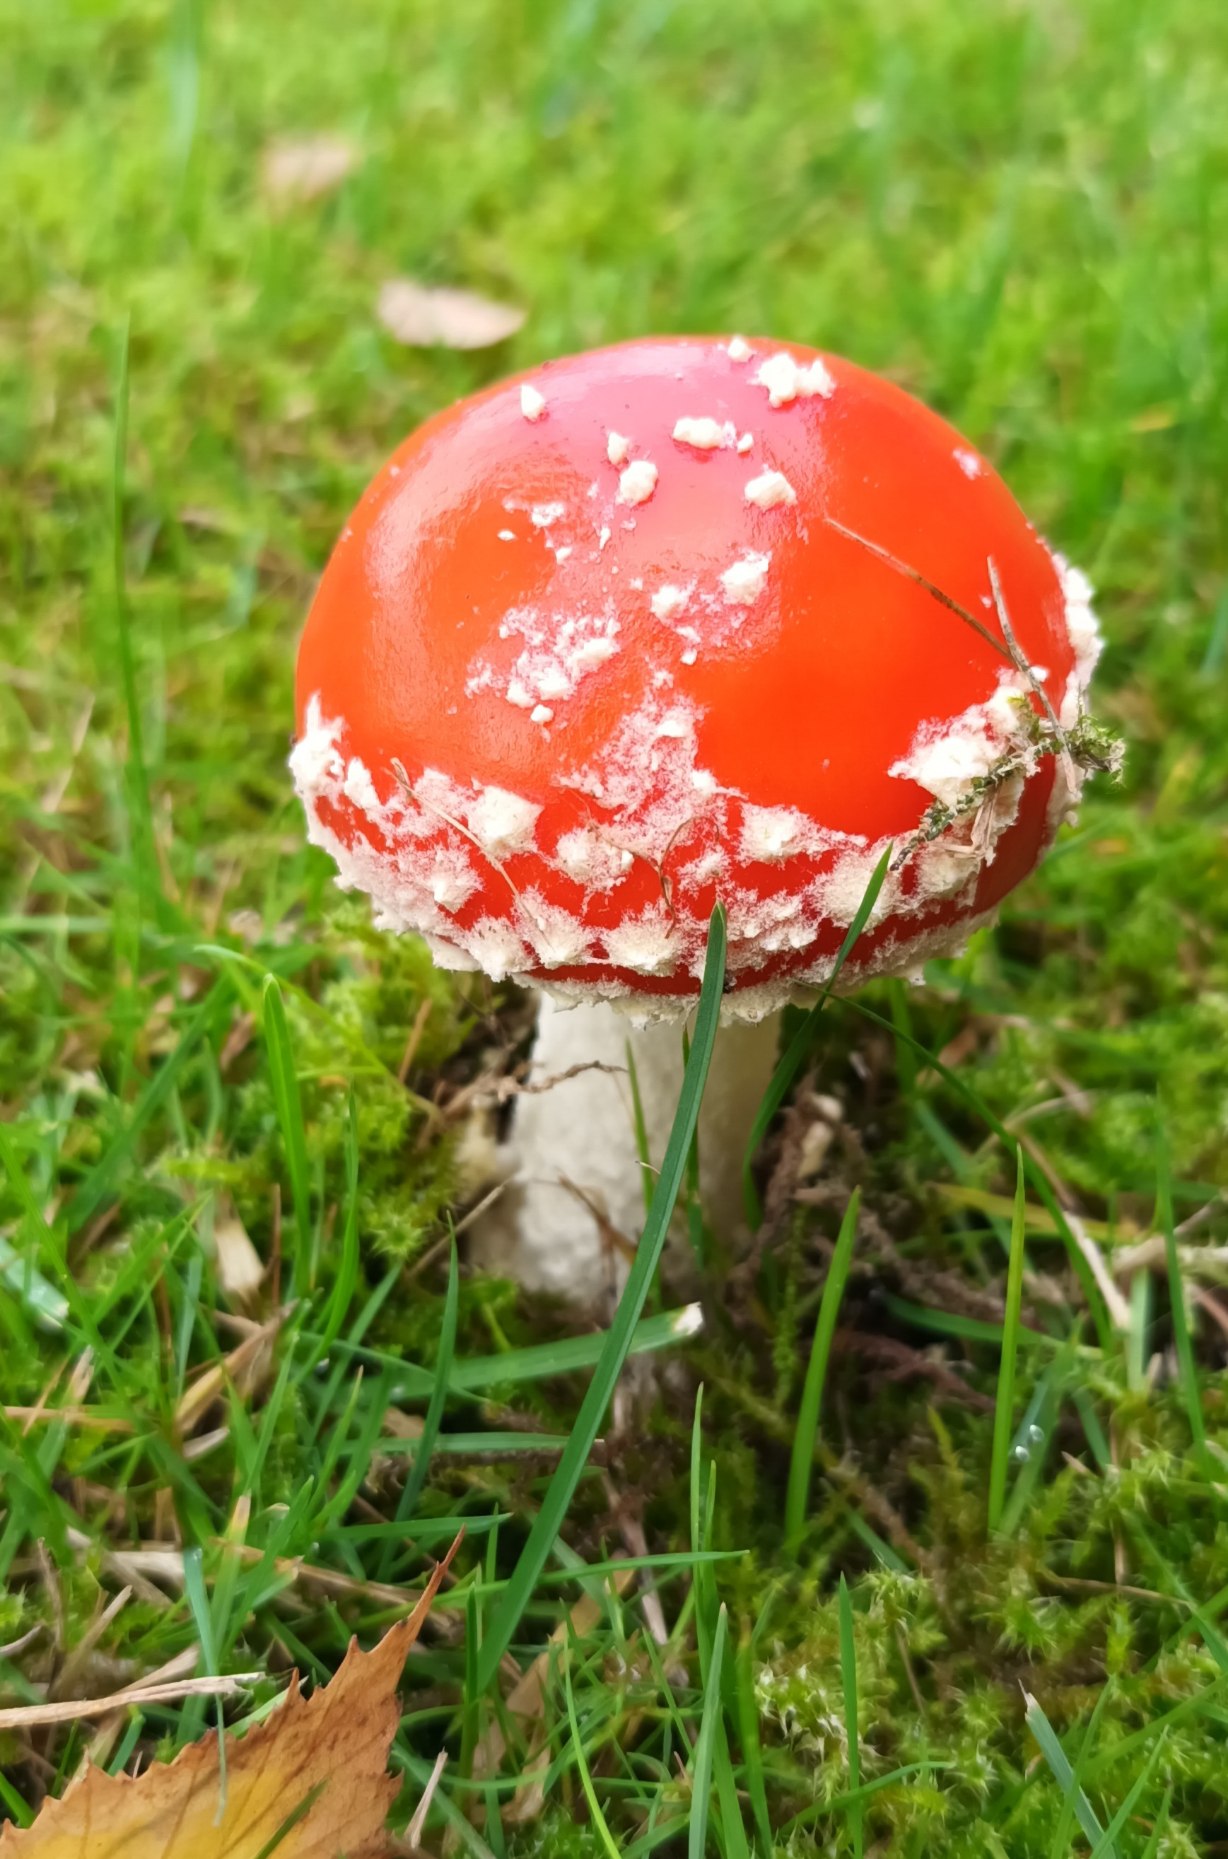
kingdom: Fungi
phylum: Basidiomycota
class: Agaricomycetes
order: Agaricales
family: Amanitaceae
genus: Amanita
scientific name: Amanita muscaria
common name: Rød fluesvamp
